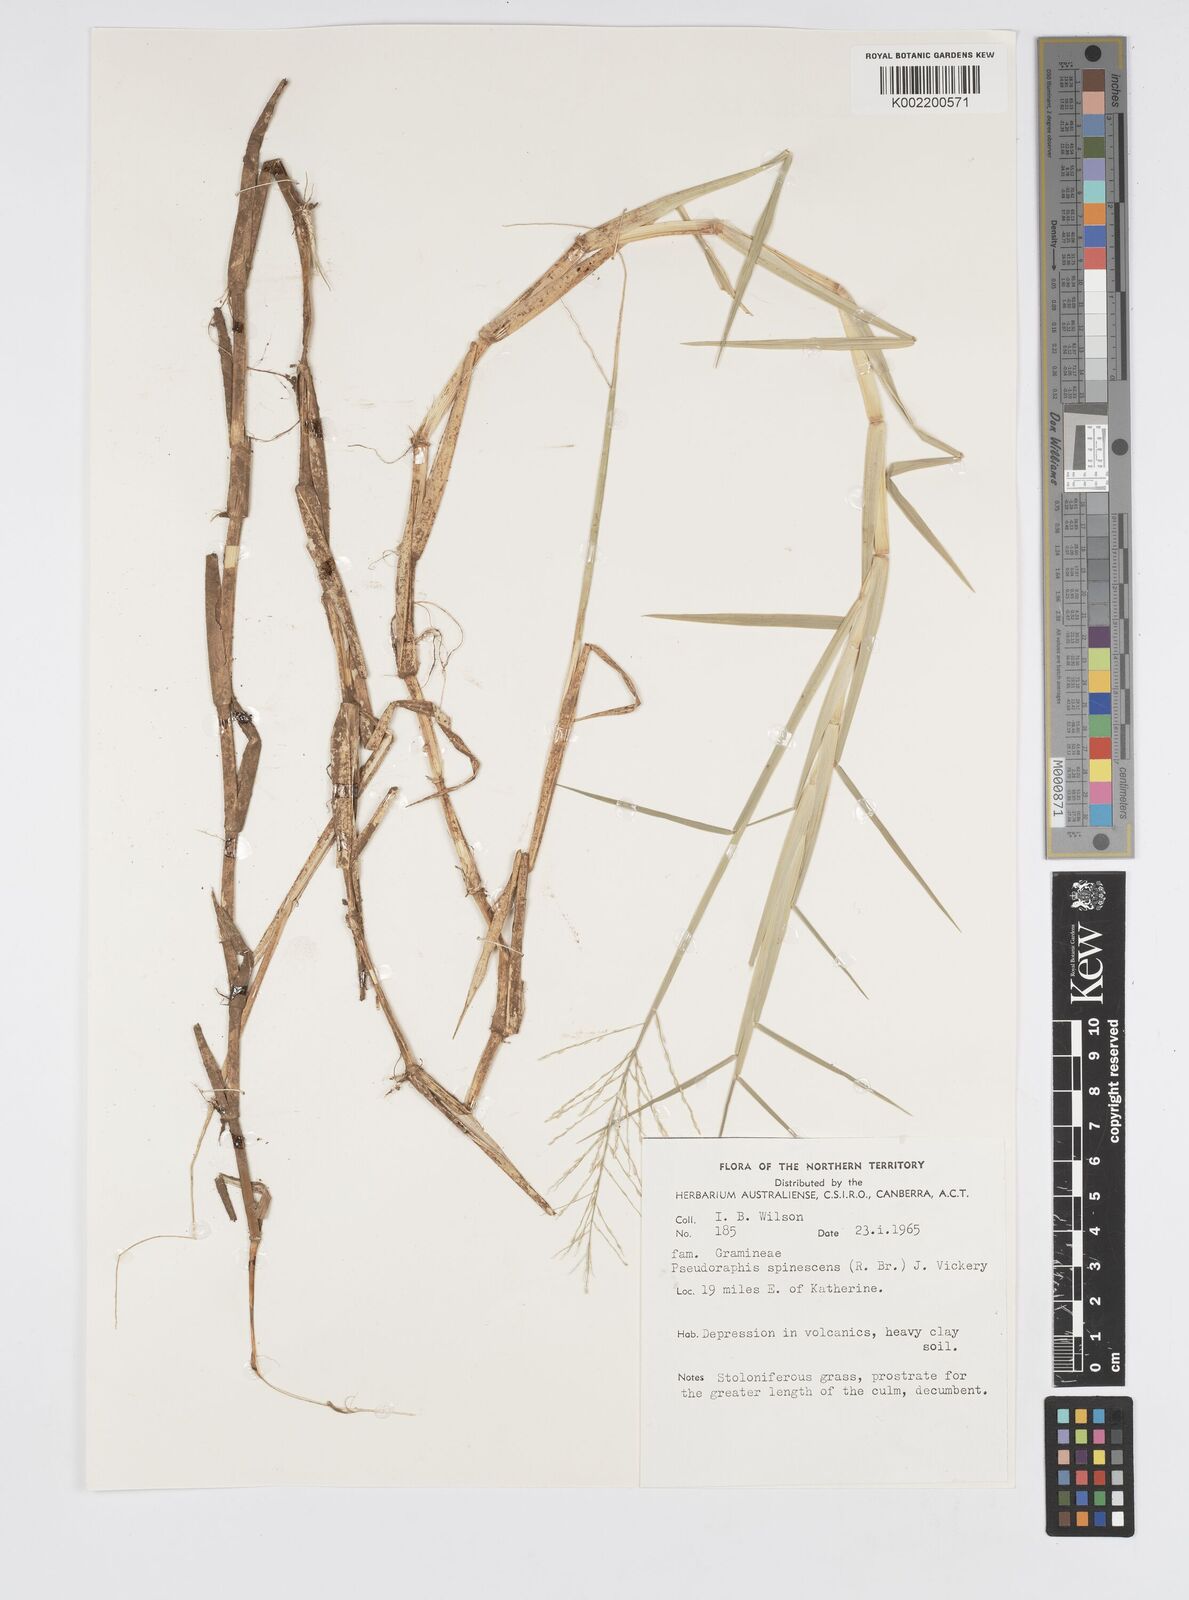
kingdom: Plantae
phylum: Tracheophyta
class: Liliopsida
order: Poales
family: Poaceae
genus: Pseudoraphis
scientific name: Pseudoraphis spinescens
